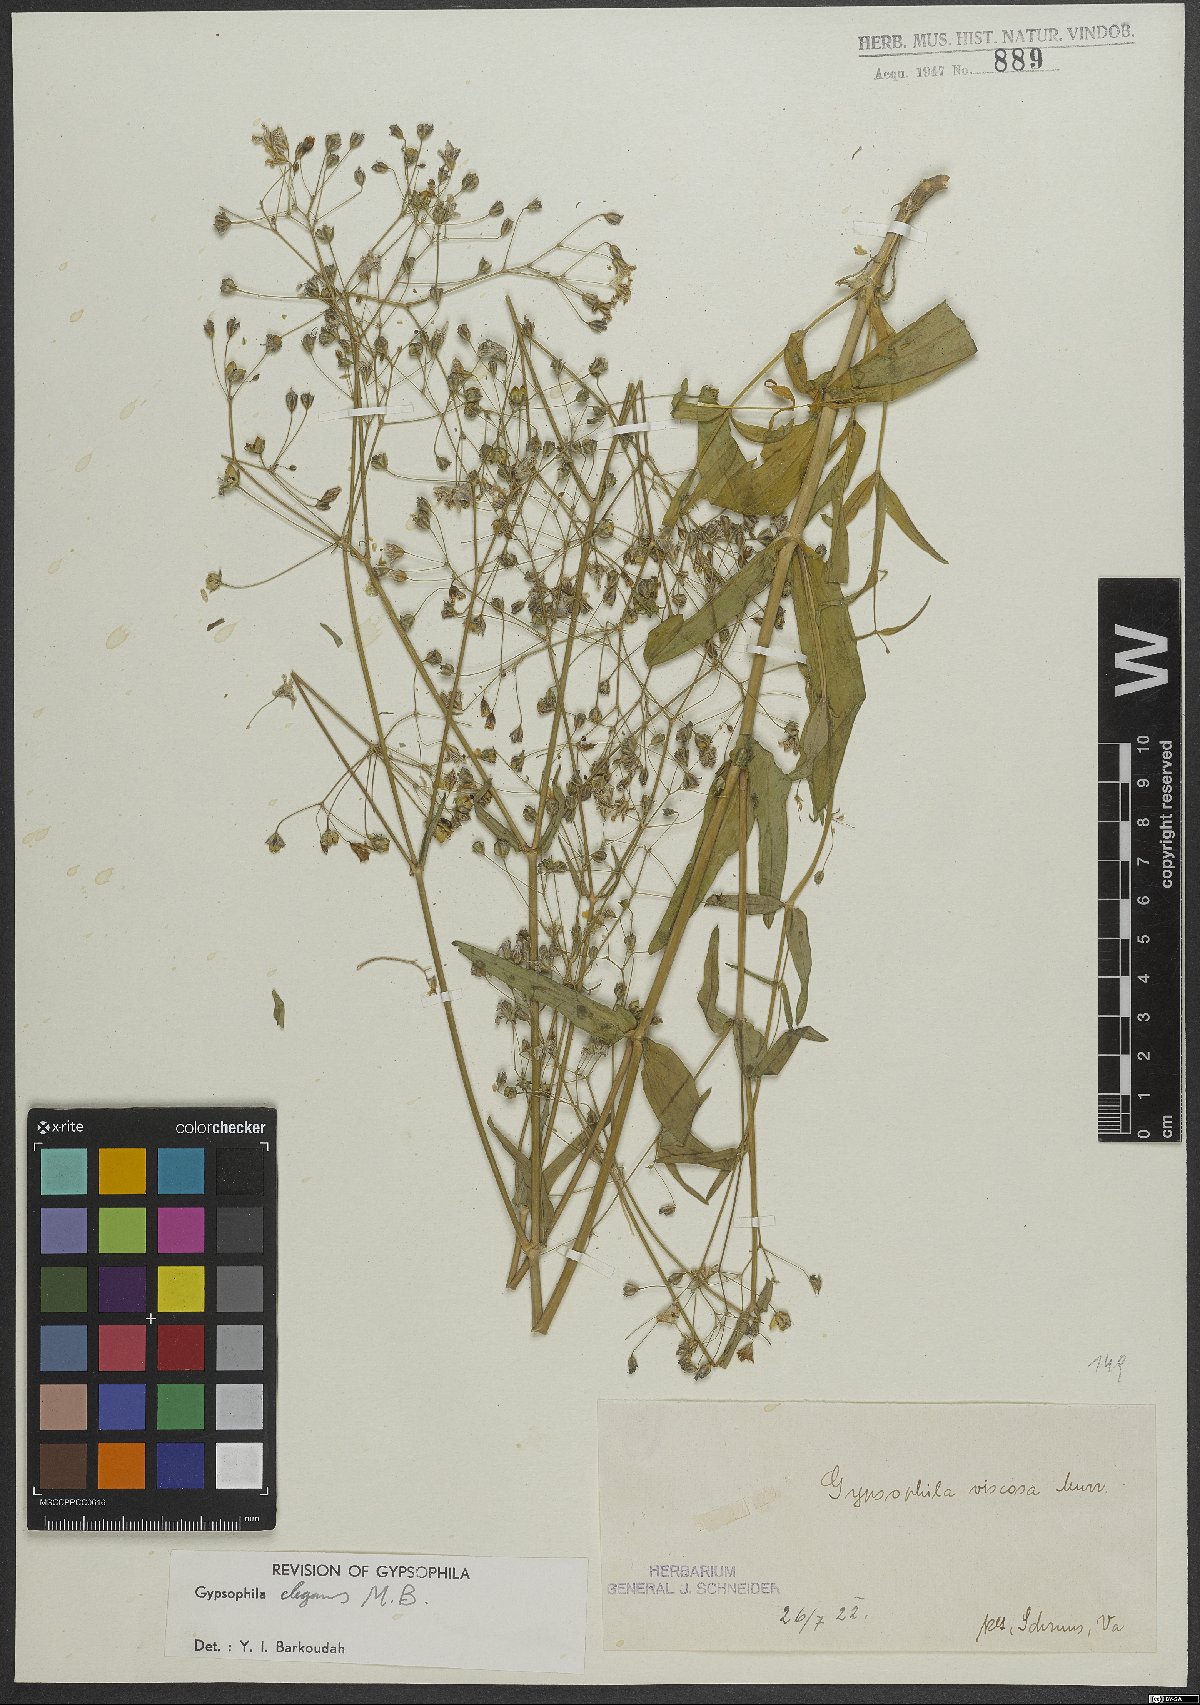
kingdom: Plantae
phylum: Tracheophyta
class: Magnoliopsida
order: Caryophyllales
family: Caryophyllaceae
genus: Gypsophila
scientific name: Gypsophila elegans
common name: Showy baby's-breath
